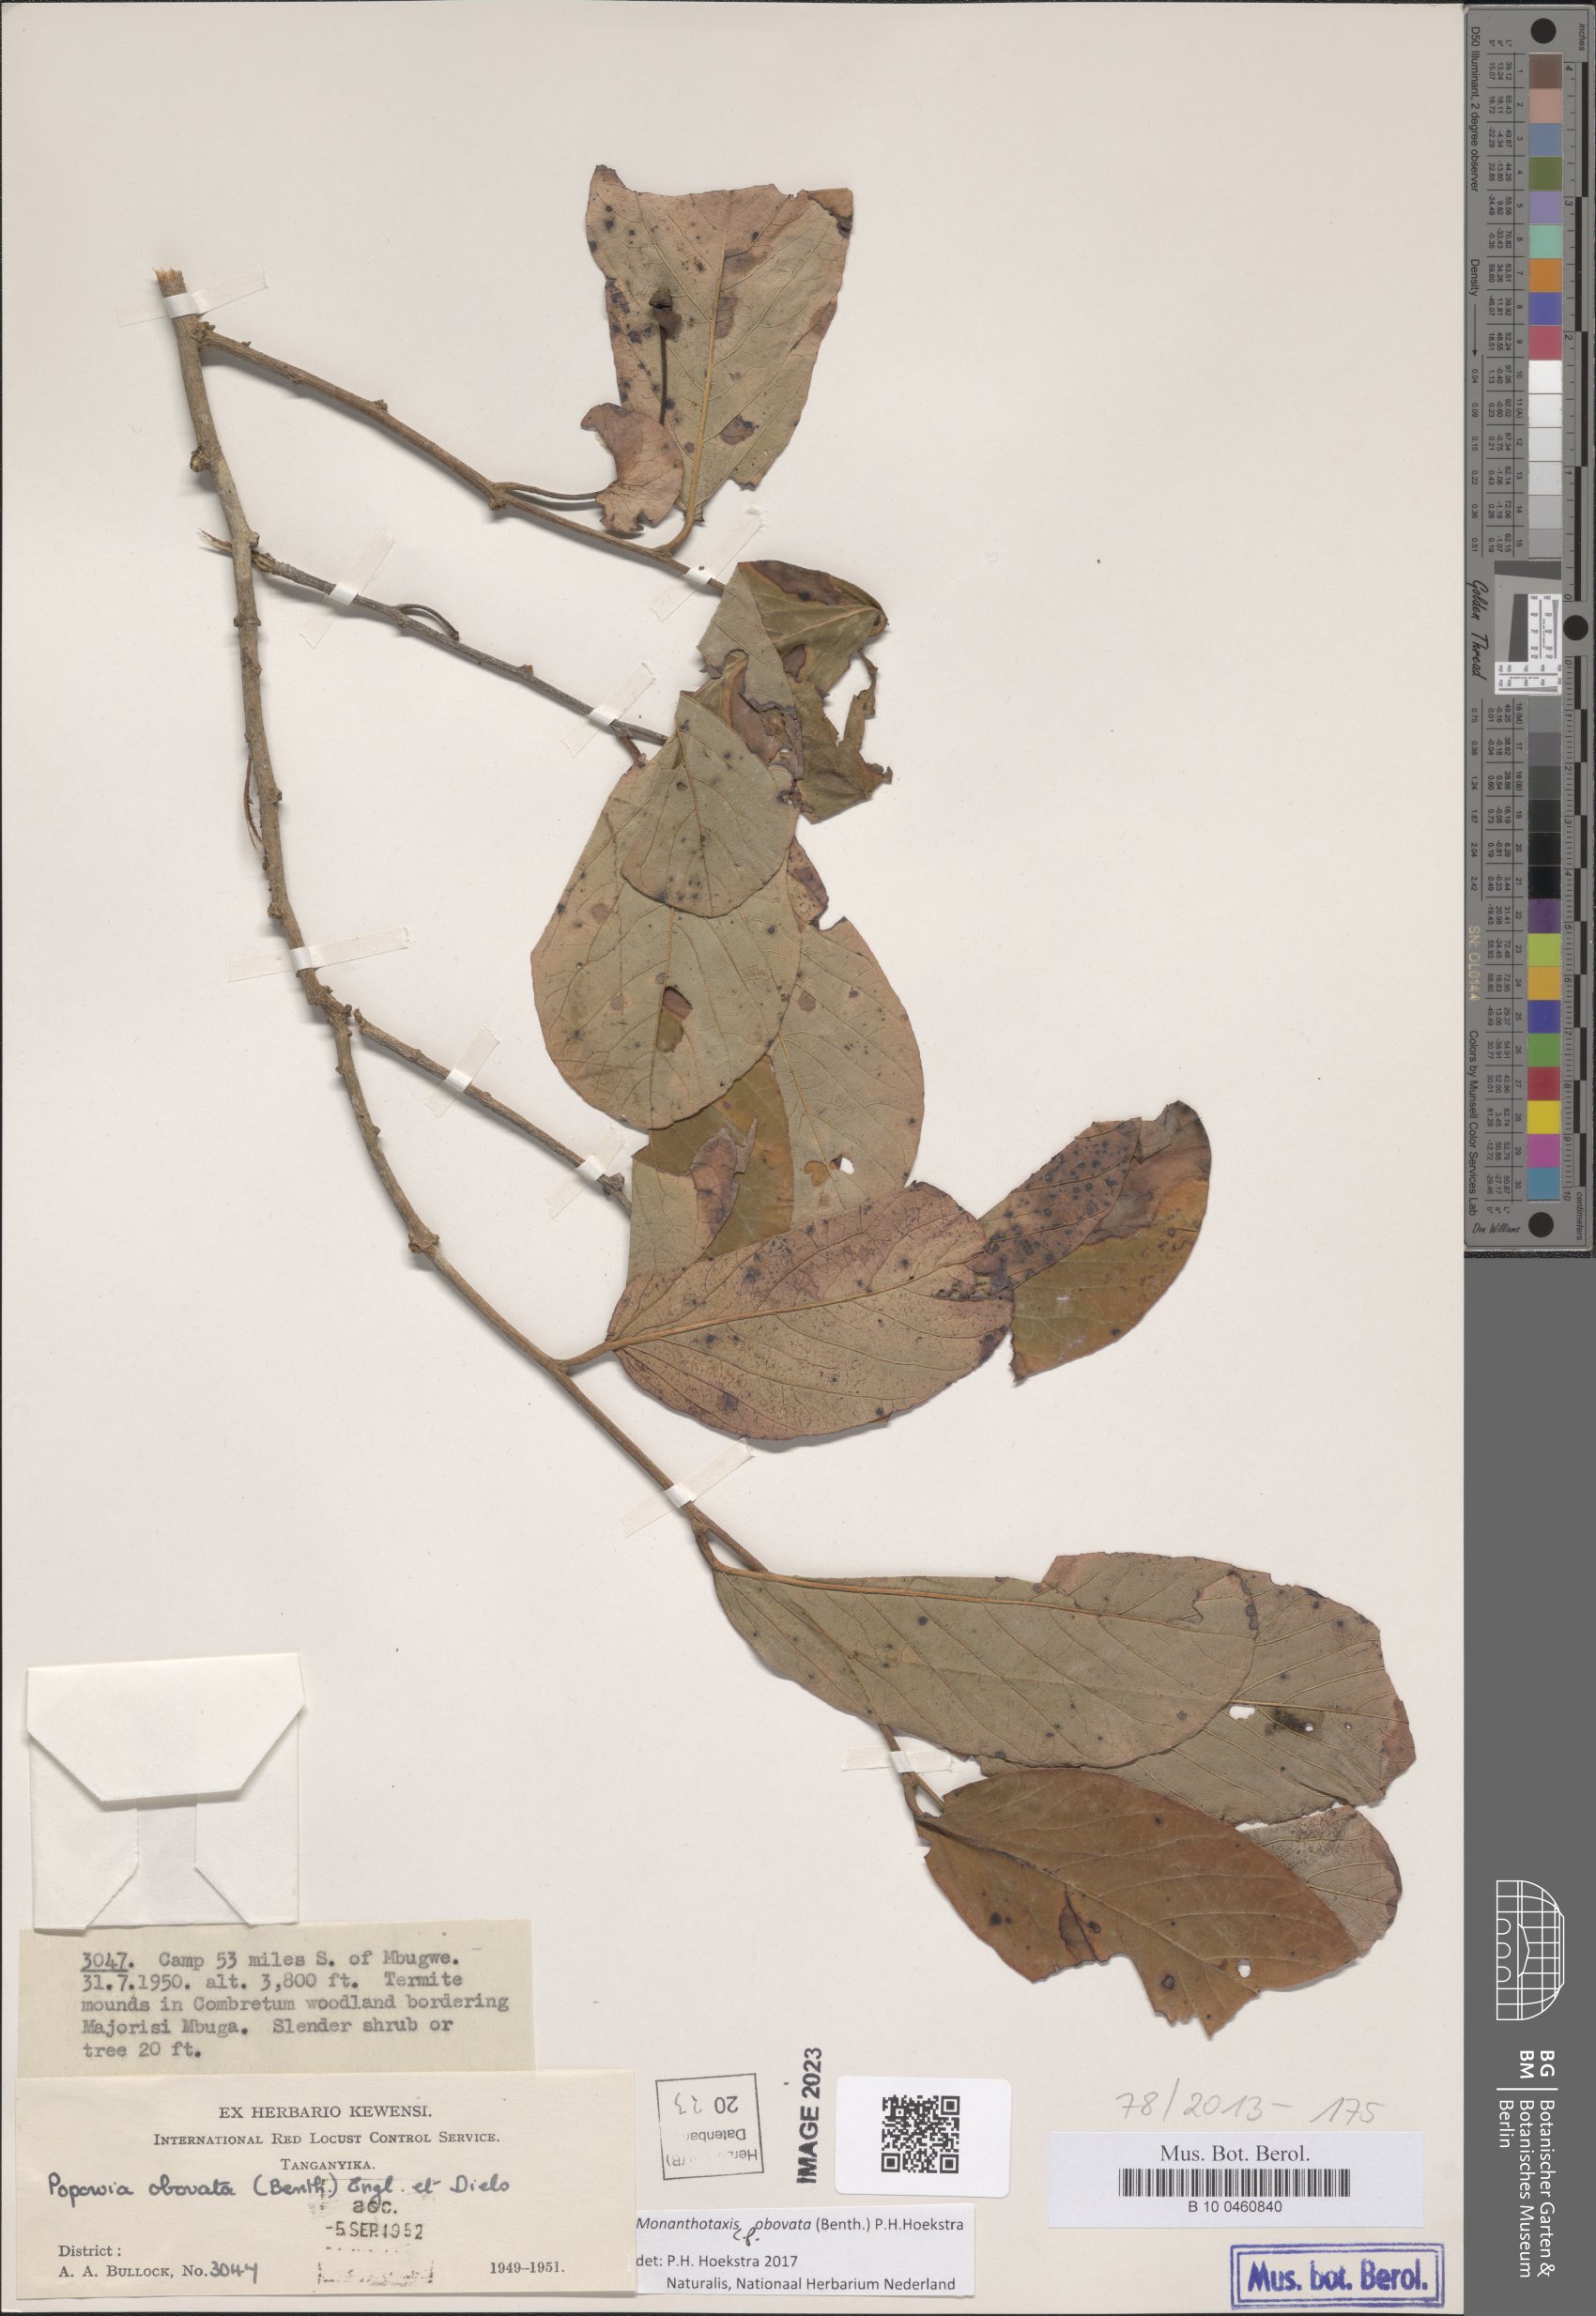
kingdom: Plantae
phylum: Tracheophyta
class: Magnoliopsida
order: Magnoliales
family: Annonaceae
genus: Friesodielsia
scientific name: Friesodielsia obovata
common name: Monkey fingers
